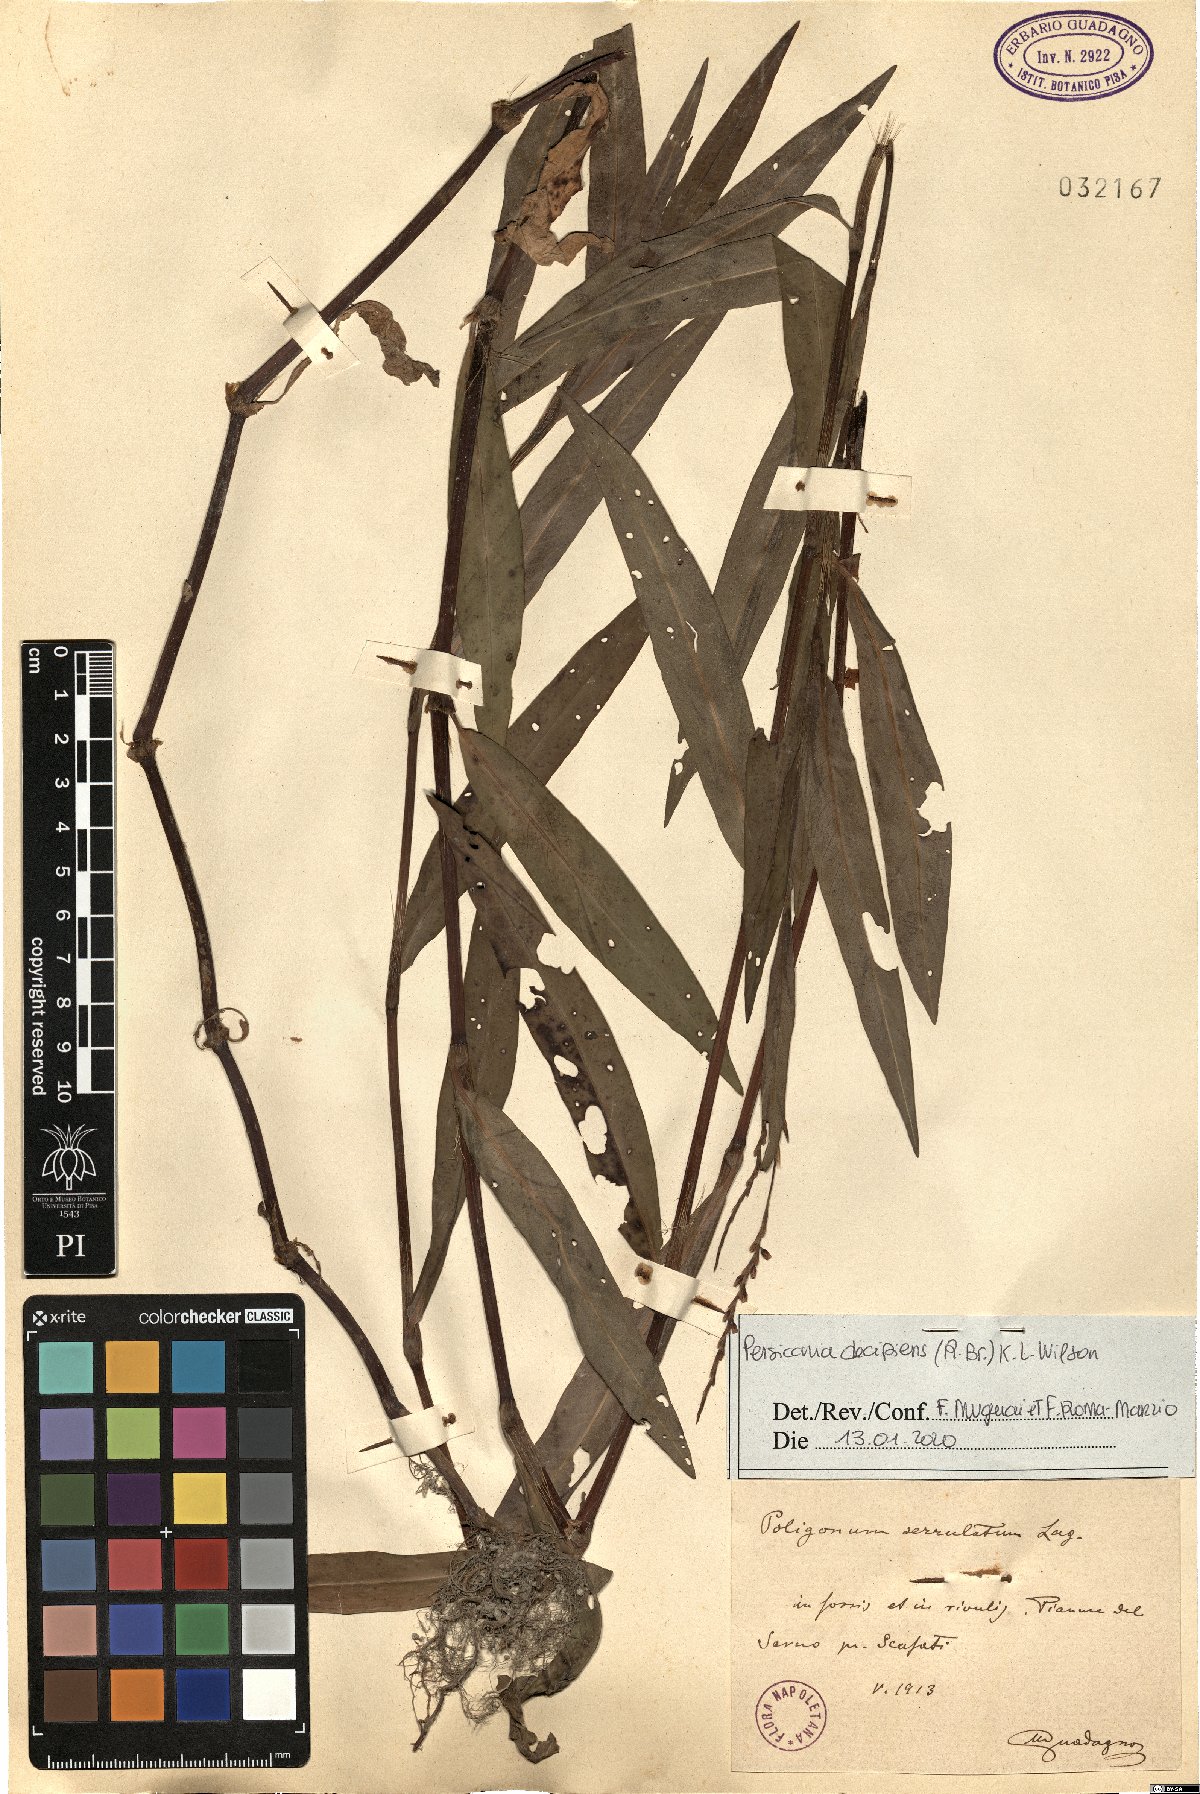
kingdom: Plantae
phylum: Tracheophyta
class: Magnoliopsida
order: Caryophyllales
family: Polygonaceae
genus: Persicaria
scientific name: Persicaria decipiens
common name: Willow-weed
